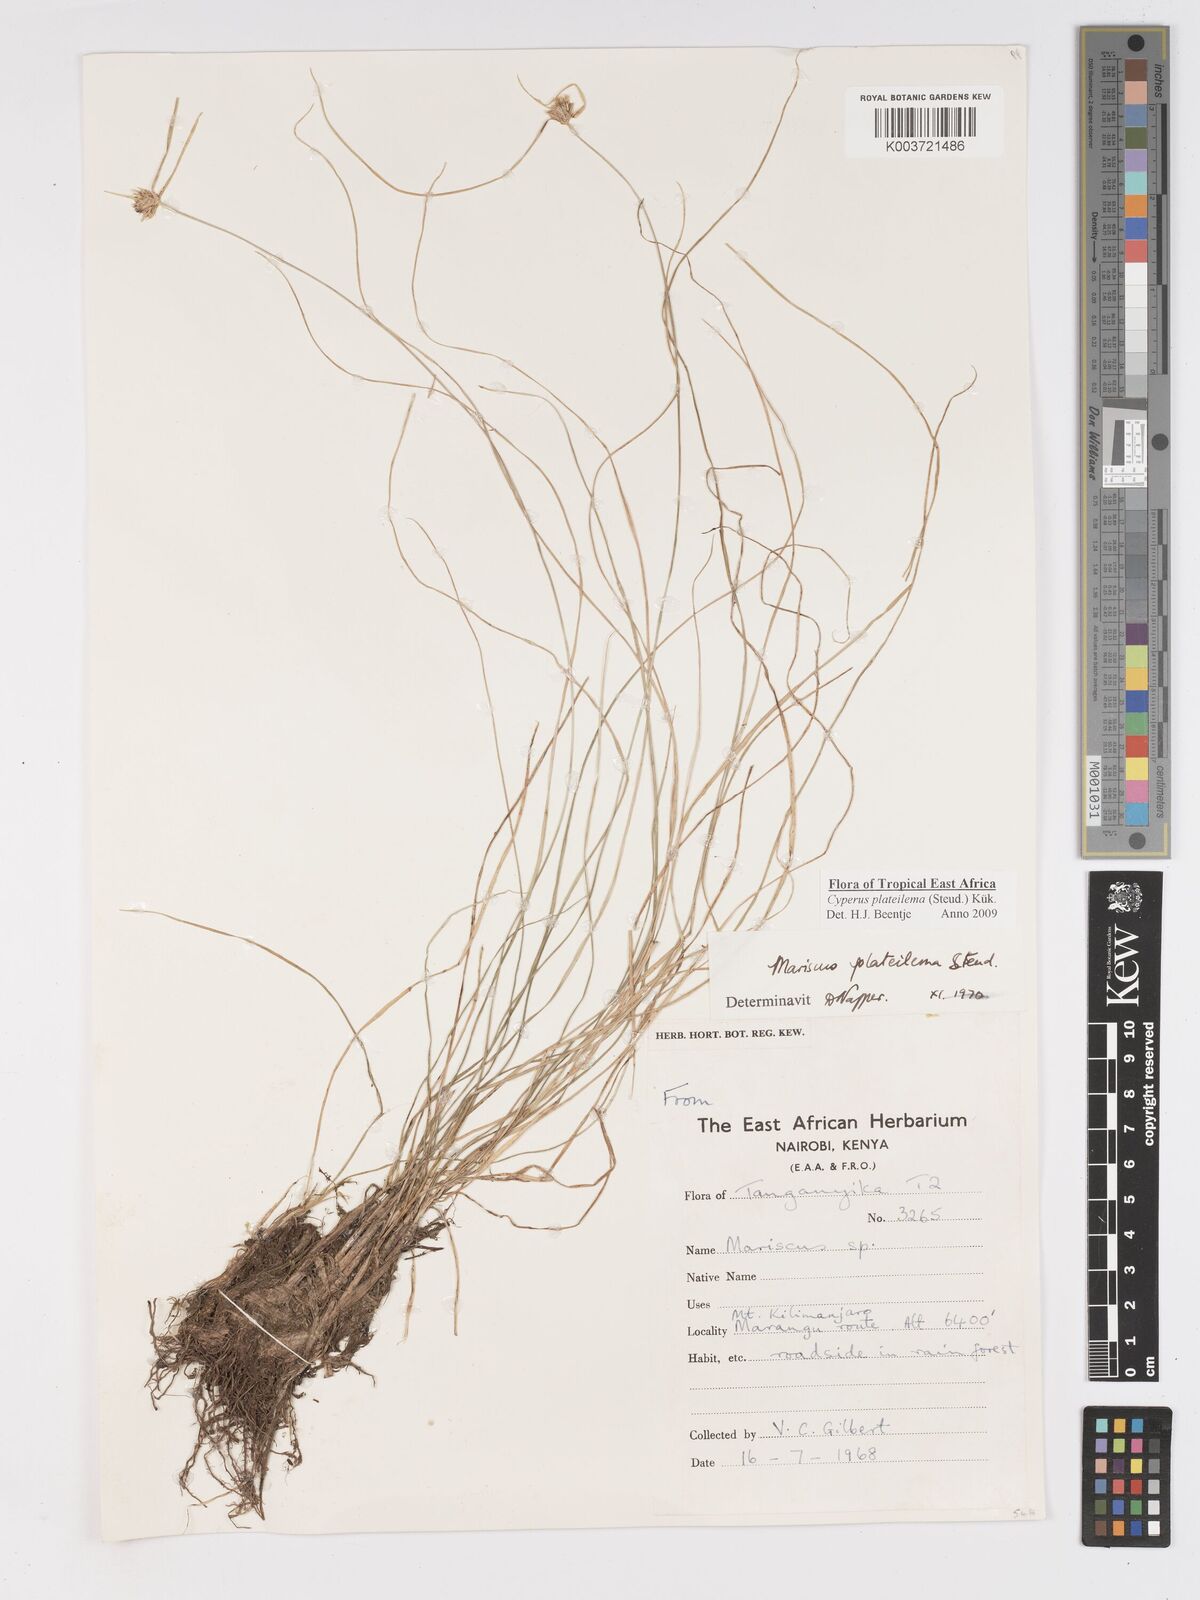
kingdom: Plantae
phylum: Tracheophyta
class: Liliopsida
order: Poales
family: Cyperaceae
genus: Cyperus
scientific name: Cyperus plateilema
